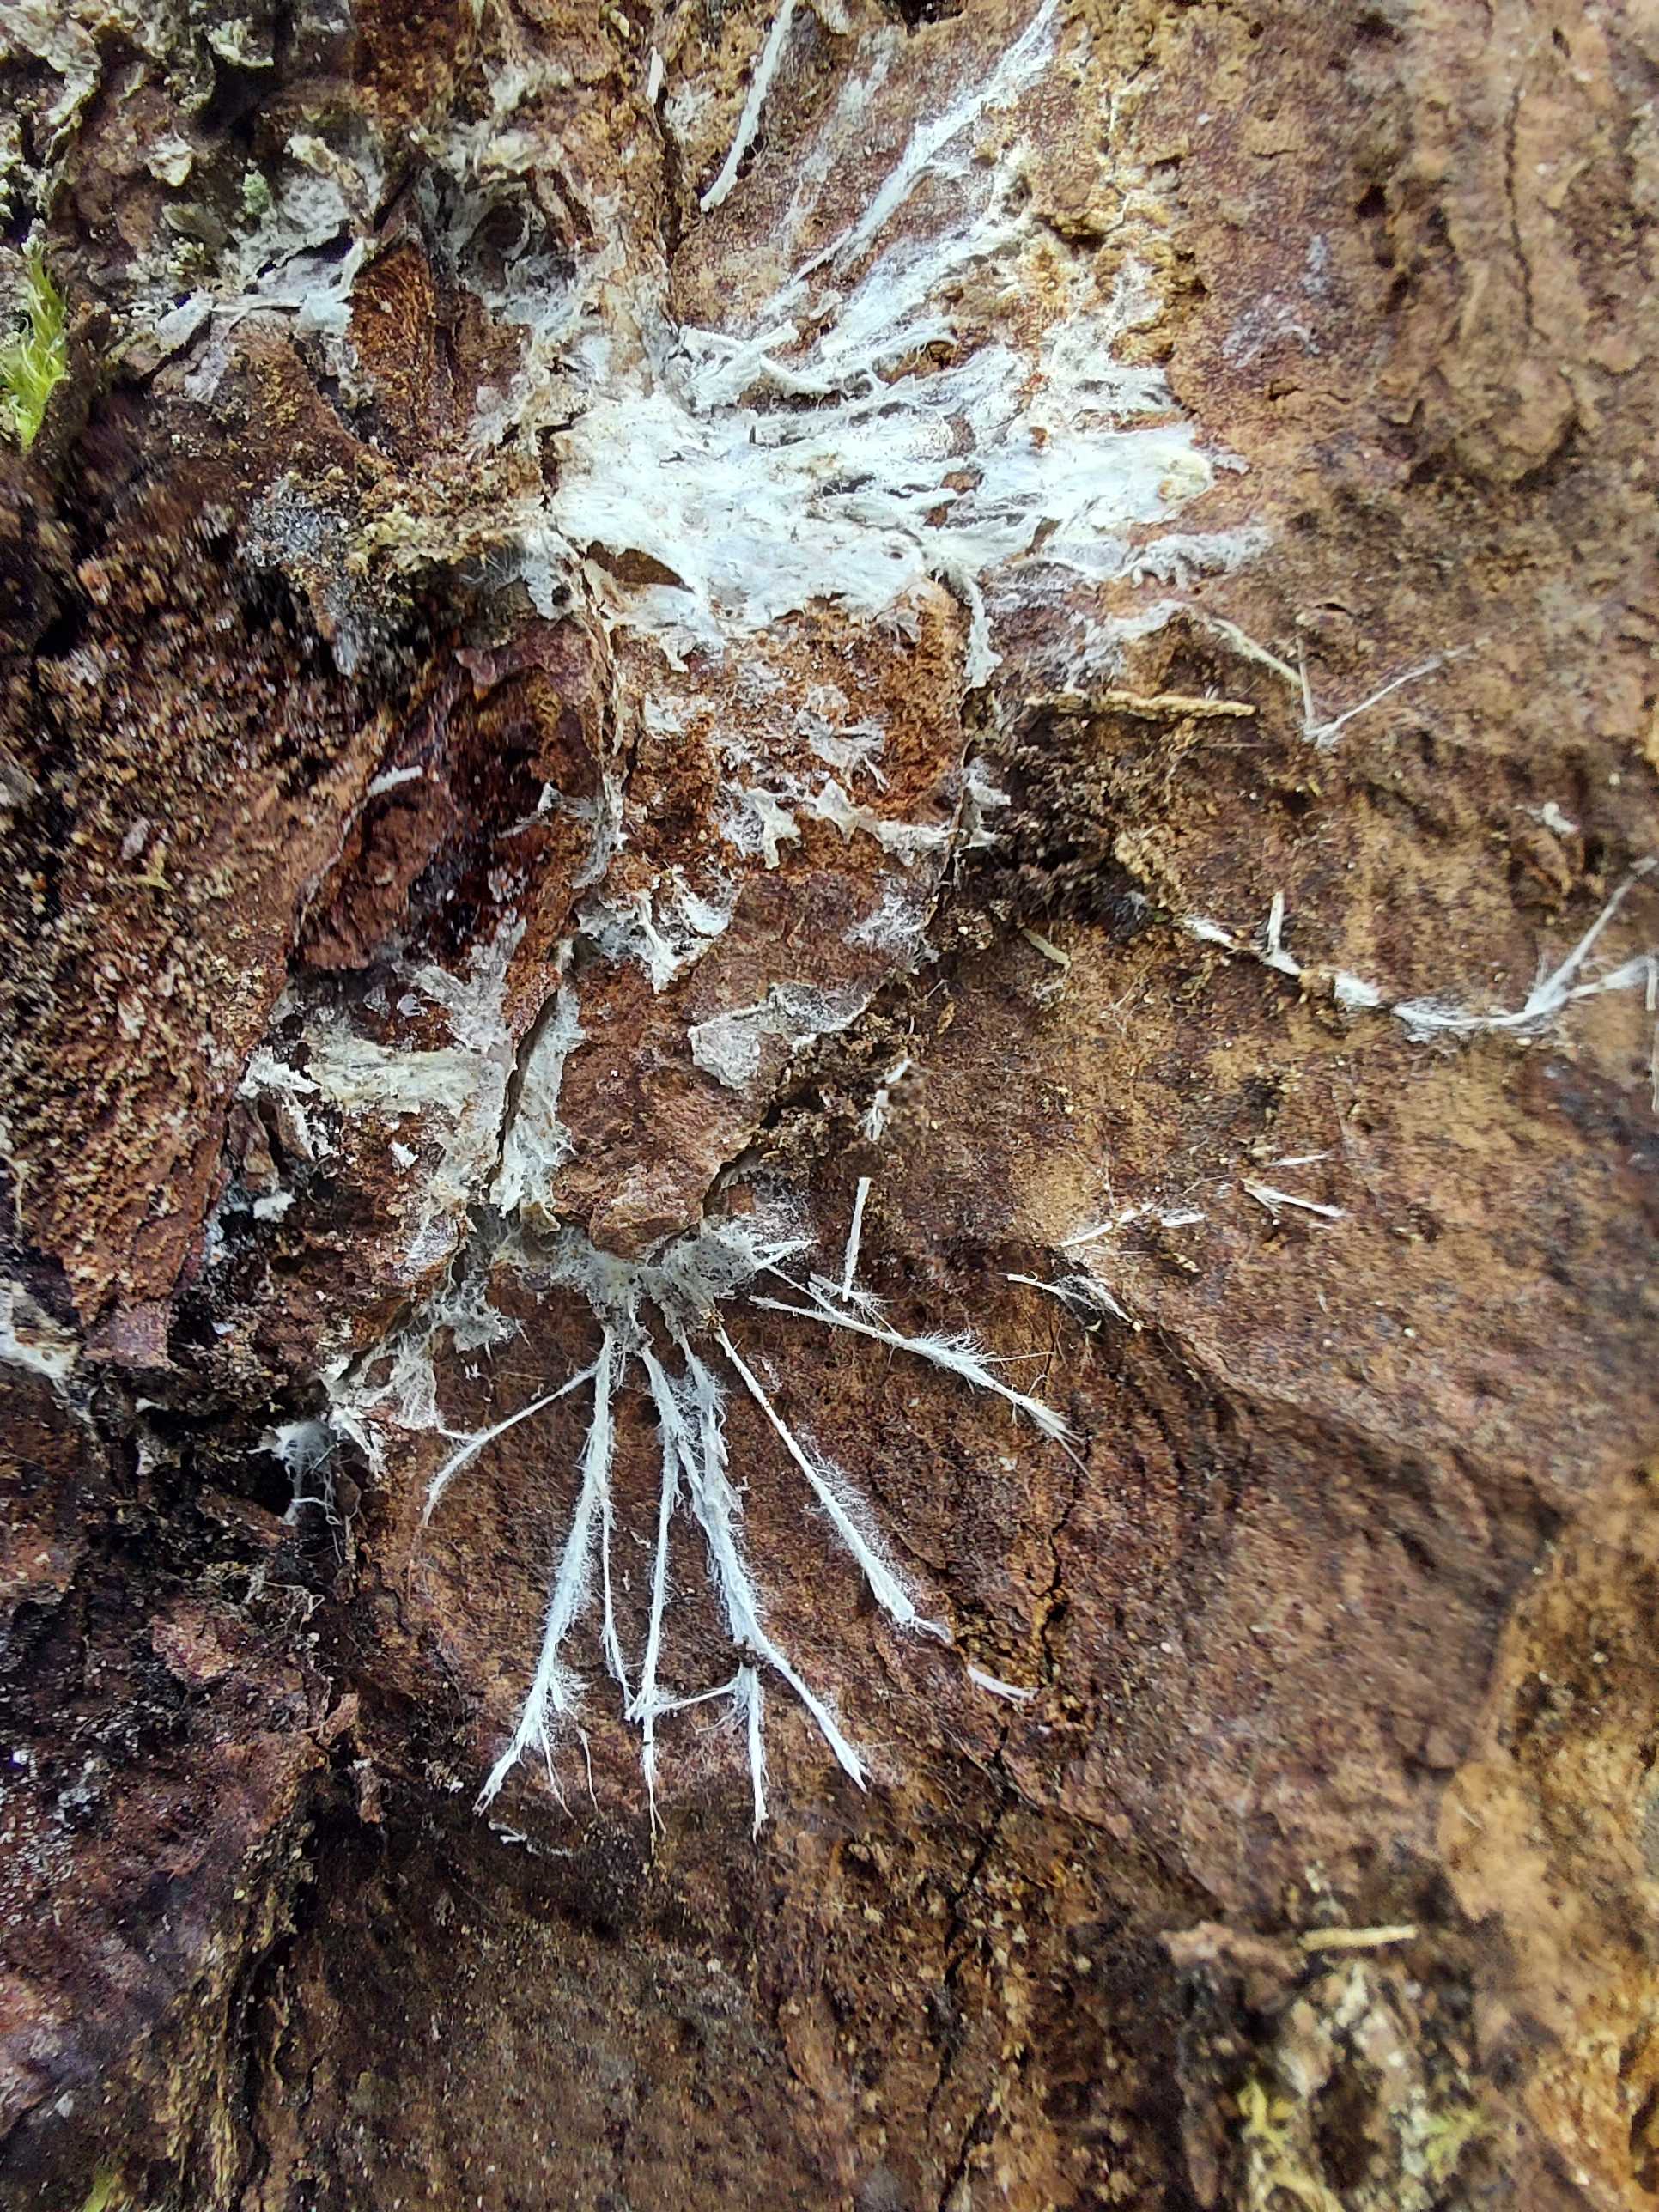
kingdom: Fungi
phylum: Basidiomycota
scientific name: Basidiomycota
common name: basidiesvampe
